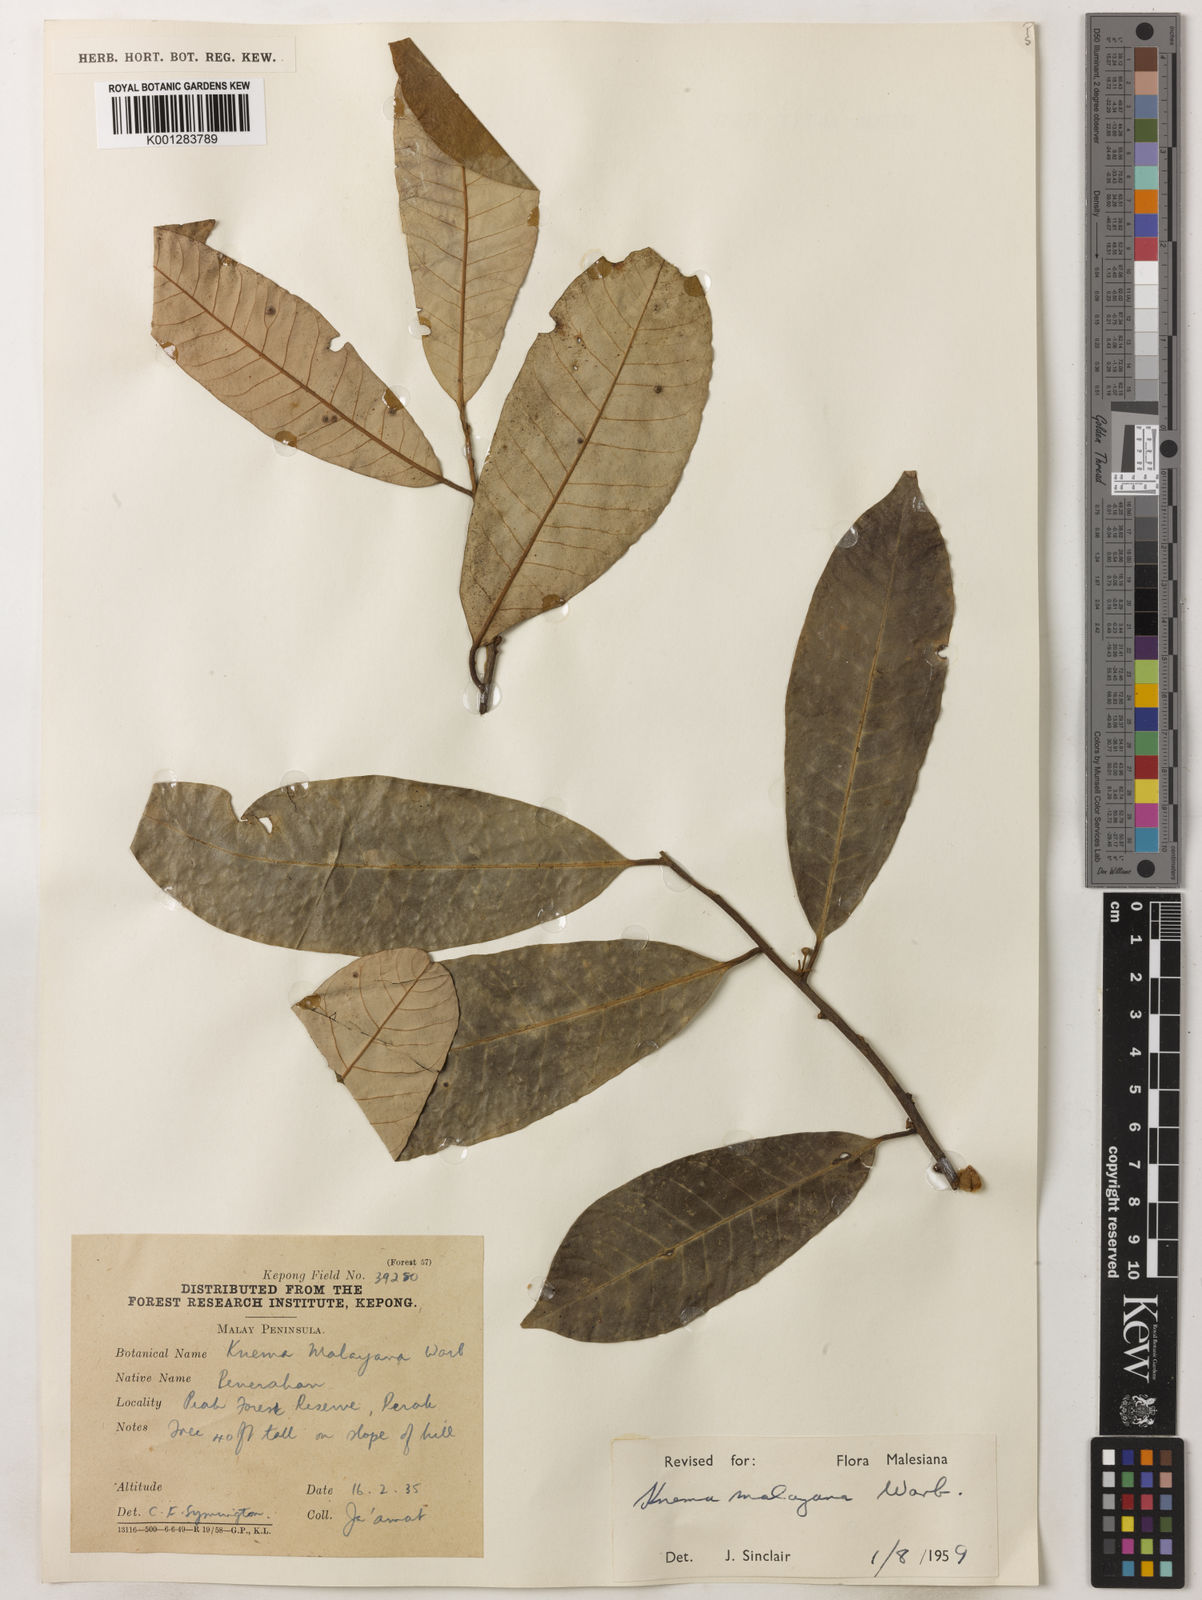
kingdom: Plantae
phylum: Tracheophyta
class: Magnoliopsida
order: Magnoliales
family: Myristicaceae
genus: Knema
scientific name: Knema malayana
